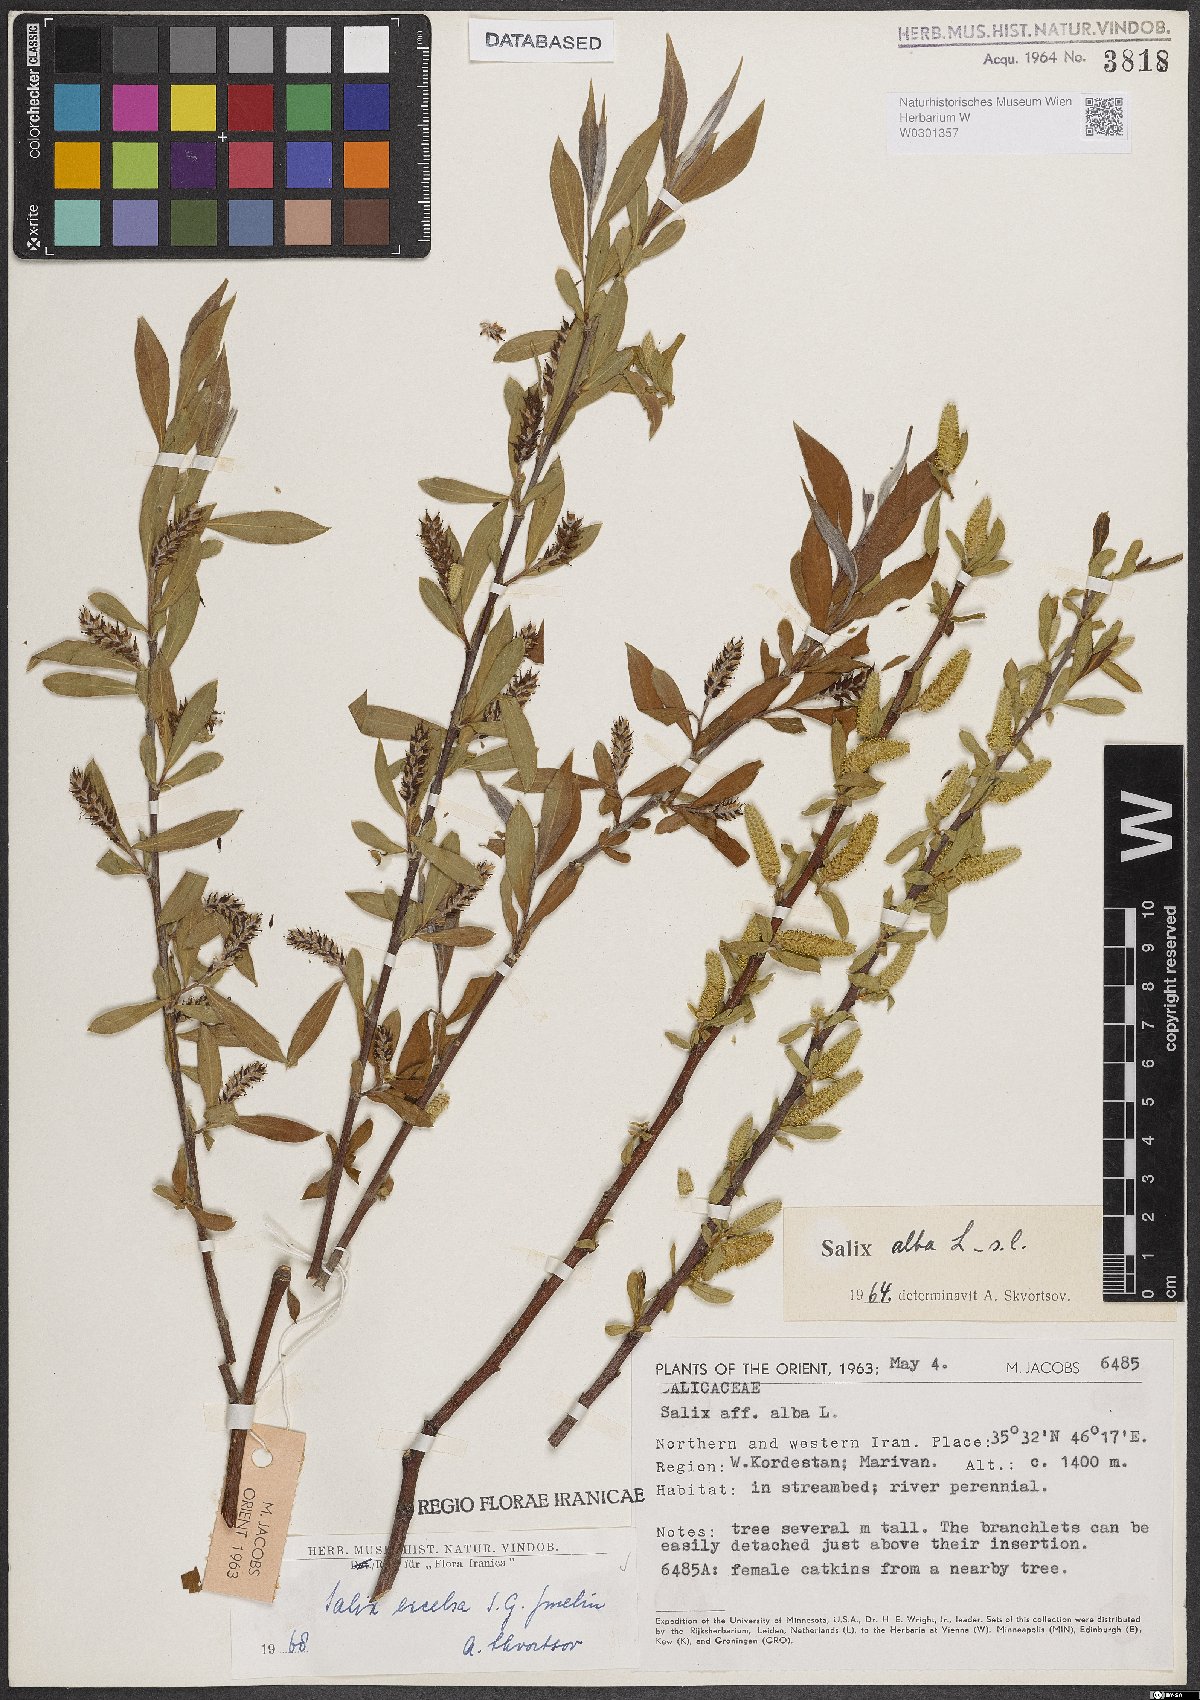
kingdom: Plantae
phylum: Tracheophyta
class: Magnoliopsida
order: Malpighiales
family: Salicaceae
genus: Salix
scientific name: Salix excelsa
